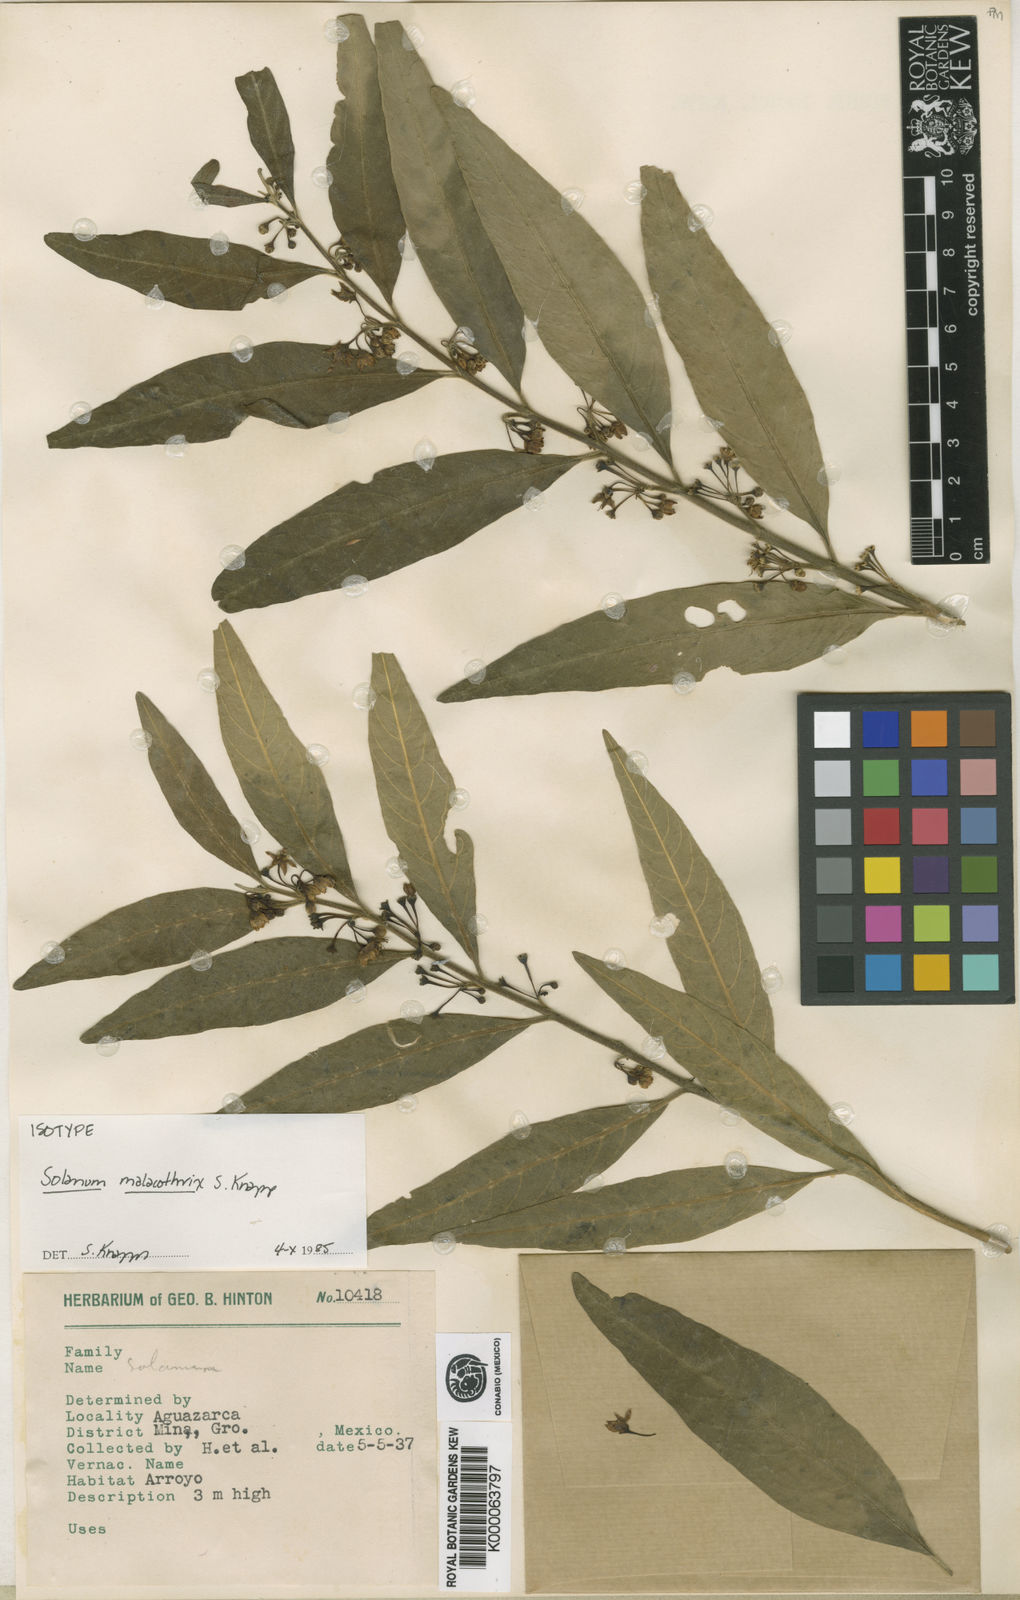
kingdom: Plantae
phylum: Tracheophyta
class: Magnoliopsida
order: Solanales
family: Solanaceae
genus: Solanum
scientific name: Solanum malacothrix
